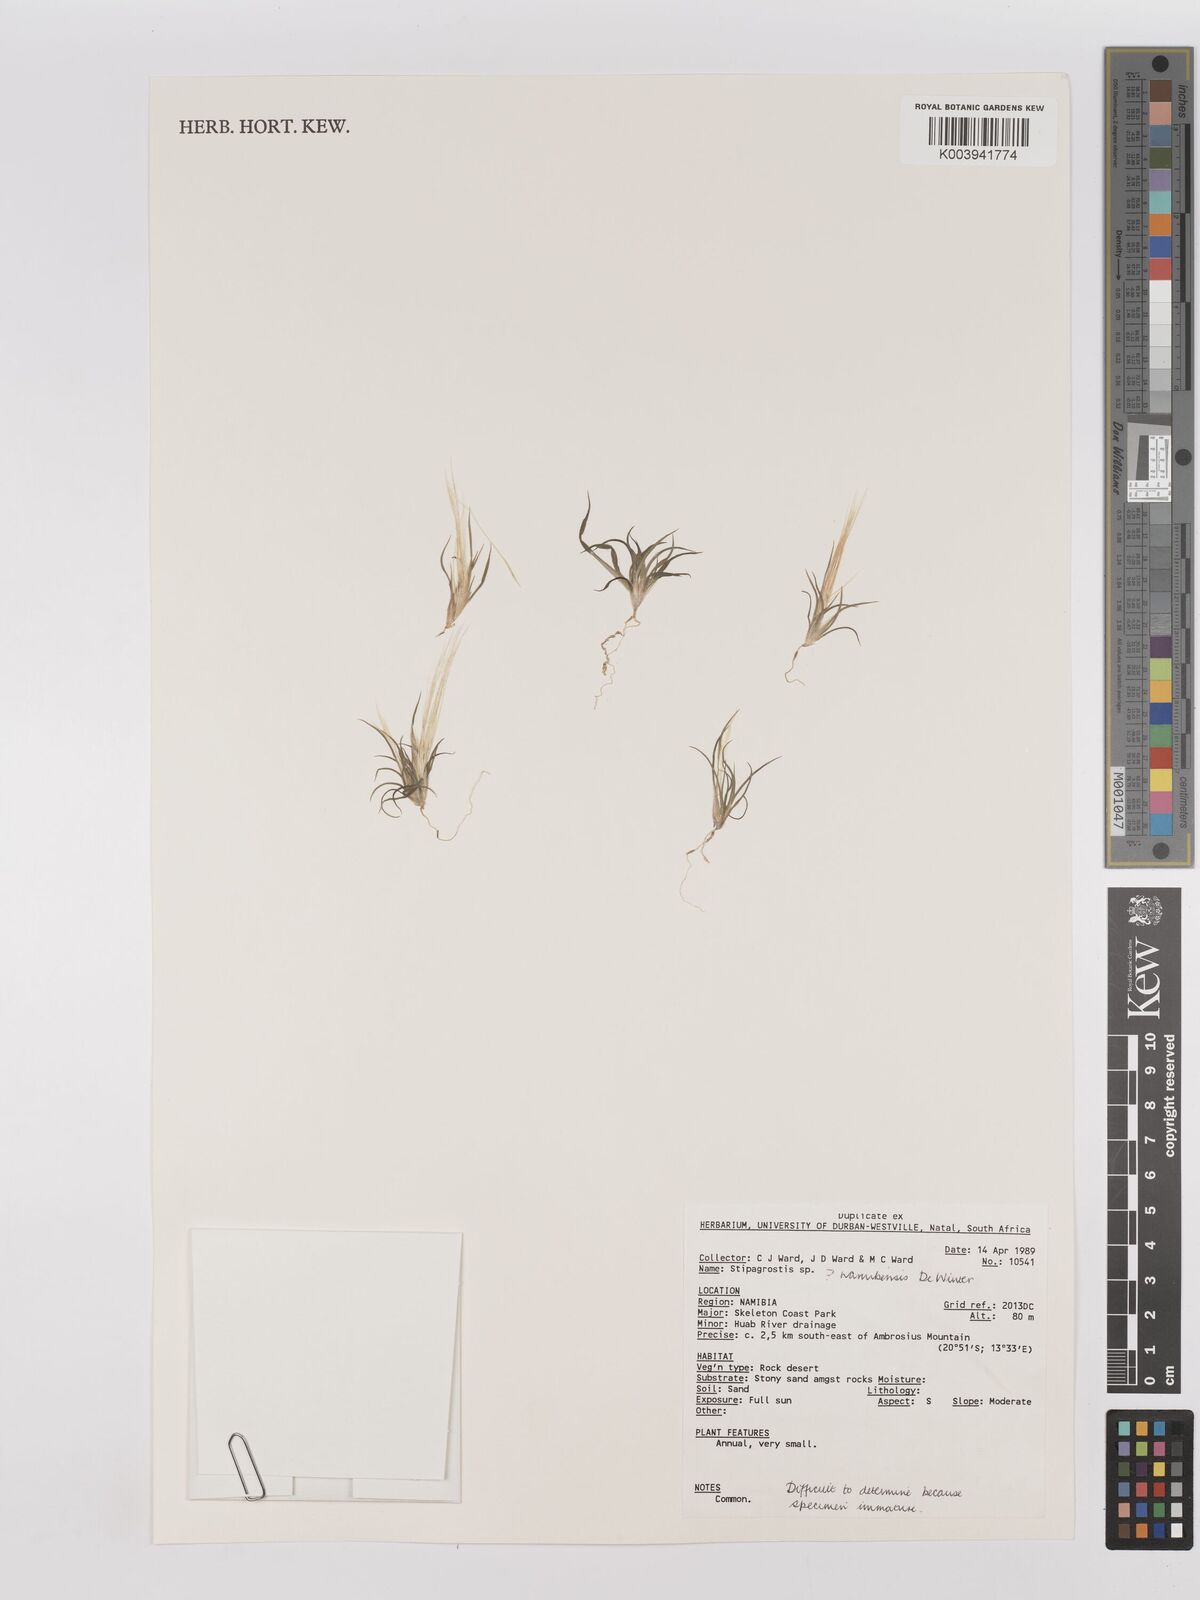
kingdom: Plantae
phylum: Tracheophyta
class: Liliopsida
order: Poales
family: Poaceae
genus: Stipagrostis
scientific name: Stipagrostis namaquensis
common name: River bushman grass
